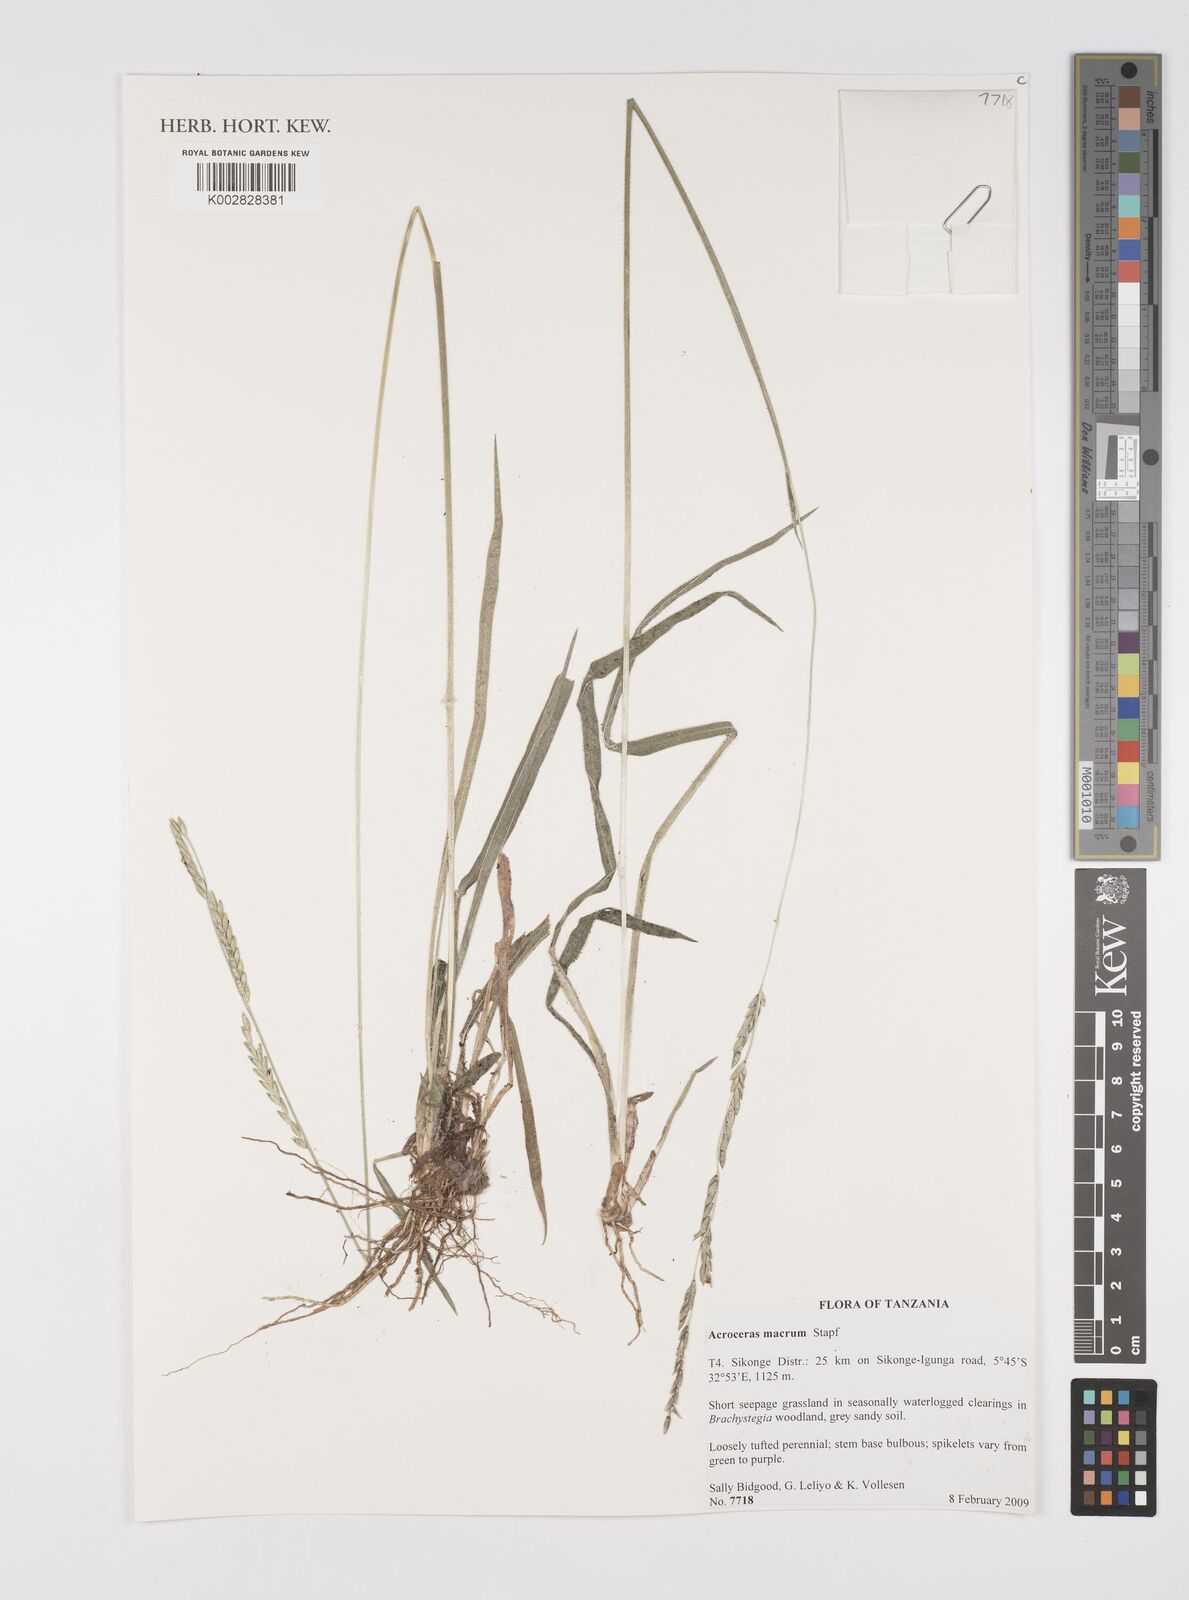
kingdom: Plantae
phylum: Tracheophyta
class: Liliopsida
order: Poales
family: Poaceae
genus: Acroceras
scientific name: Acroceras macrum
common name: Nyl grass
